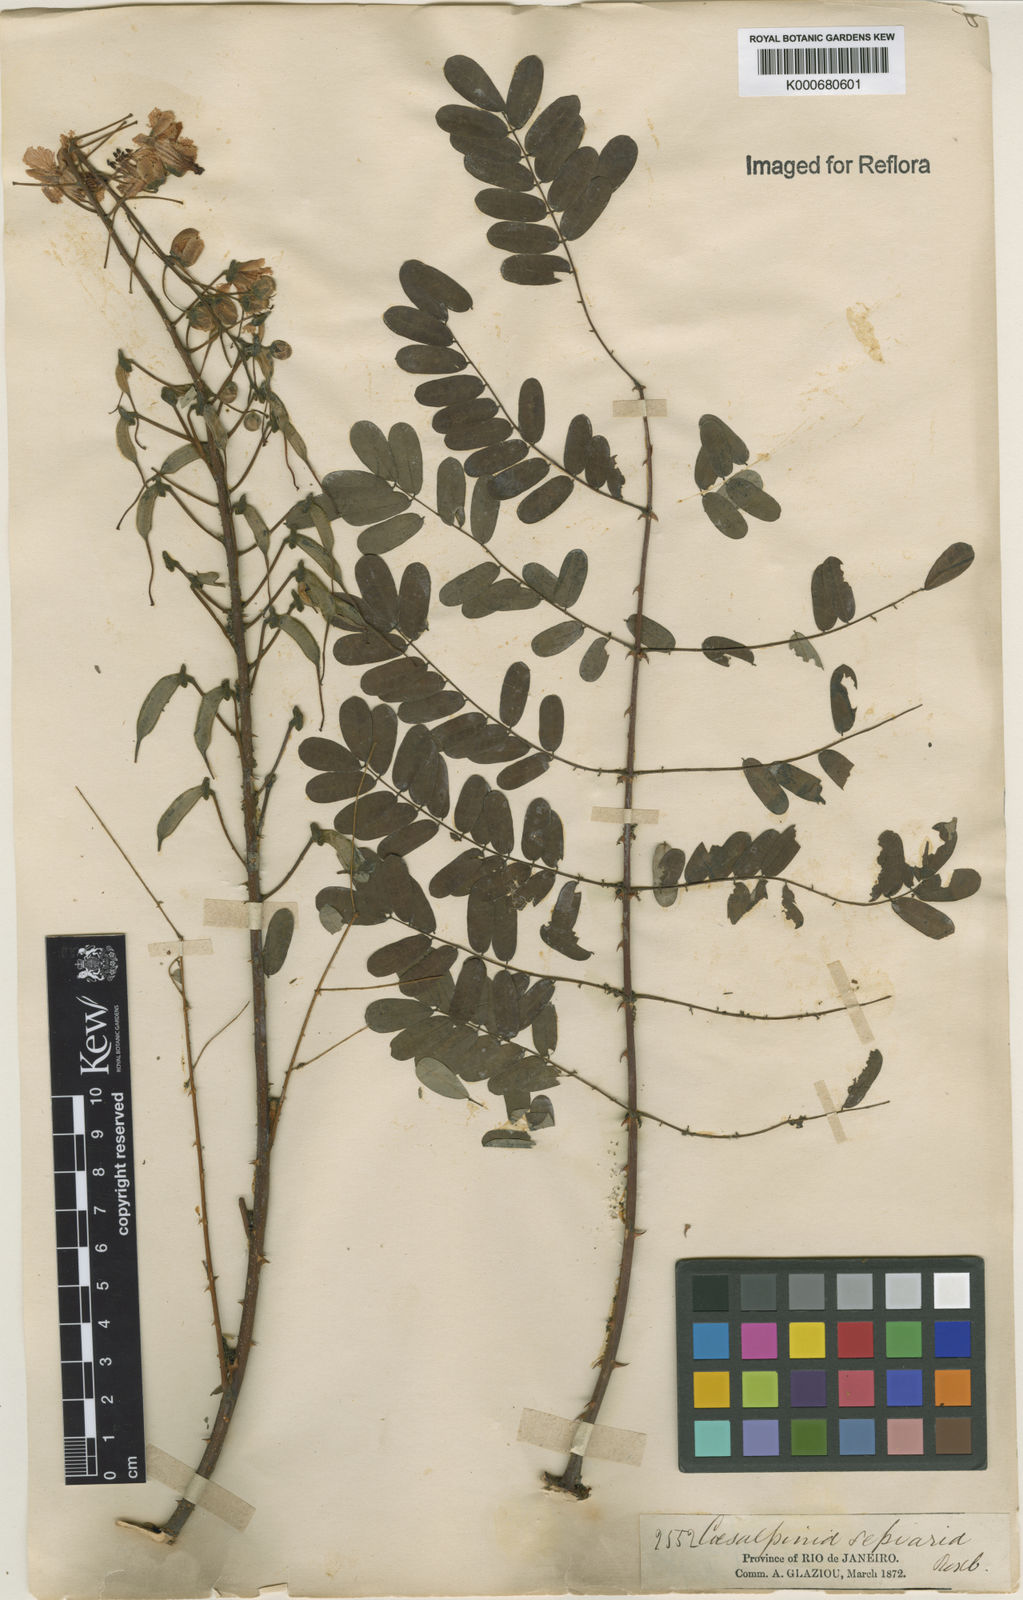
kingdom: Plantae
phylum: Tracheophyta
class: Magnoliopsida
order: Fabales
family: Fabaceae
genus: Biancaea
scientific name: Biancaea decapetala
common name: Cat's claw
